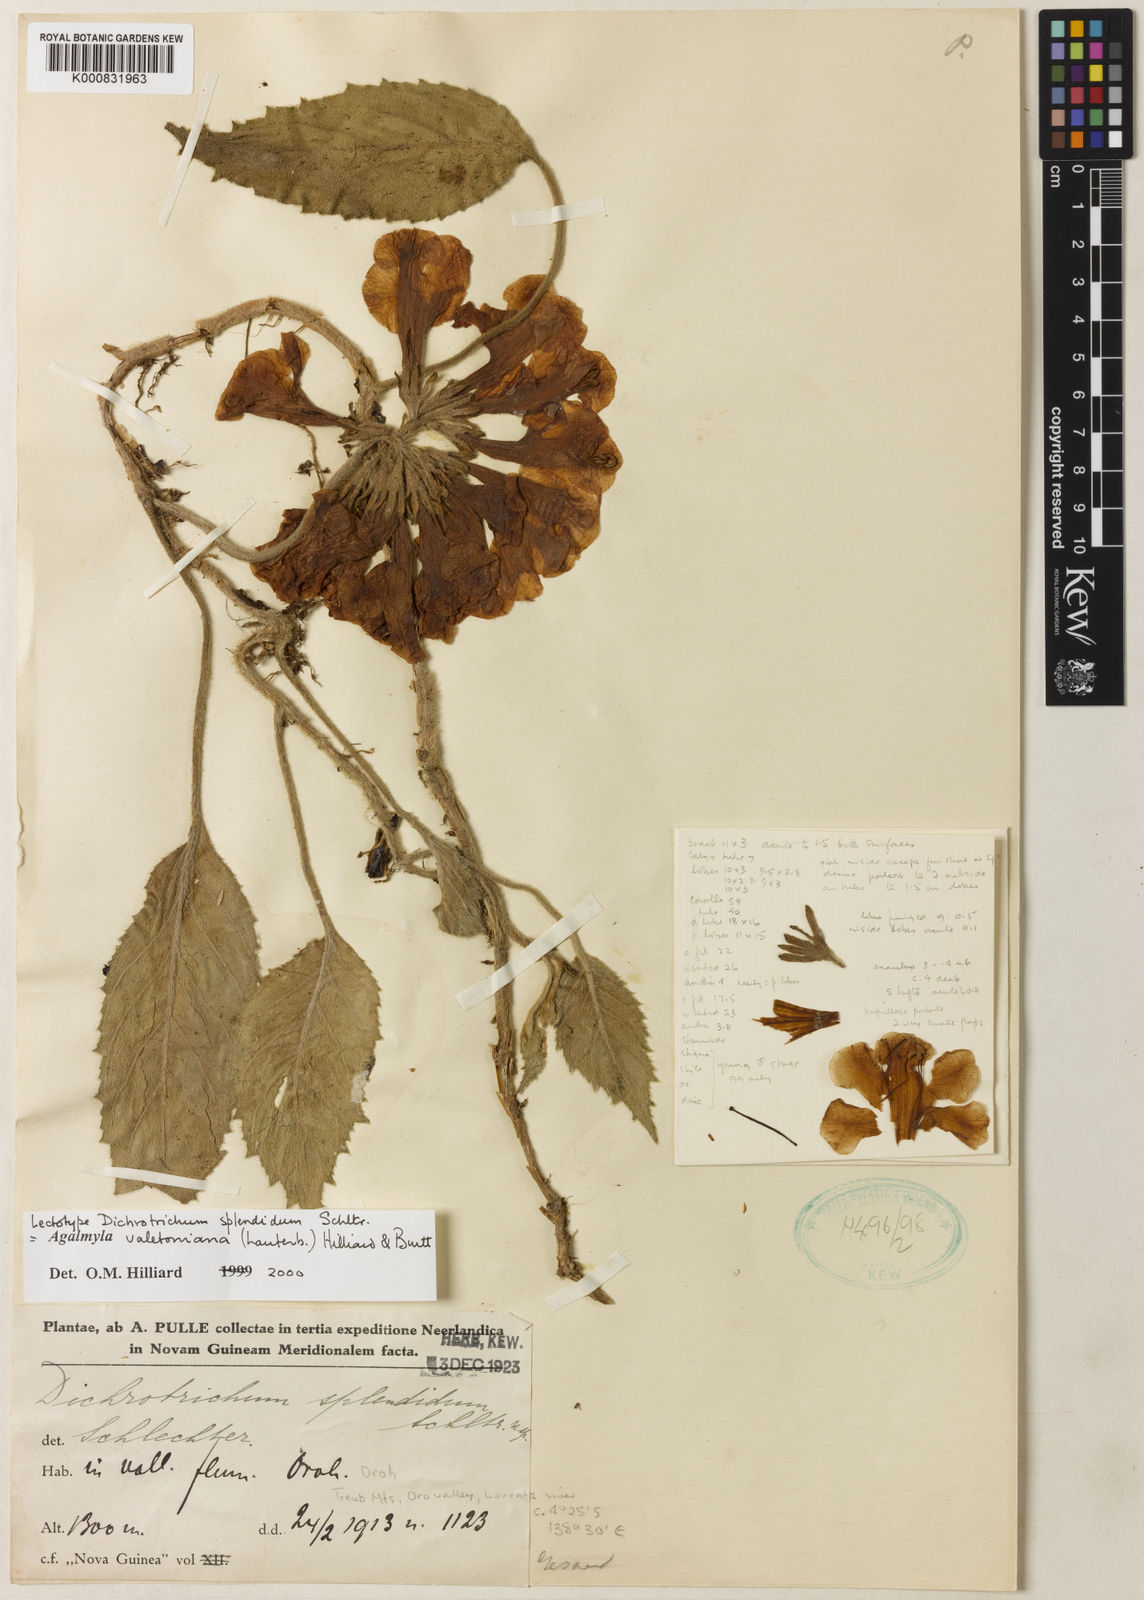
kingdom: Plantae
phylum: Tracheophyta
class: Magnoliopsida
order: Lamiales
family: Gesneriaceae
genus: Agalmyla
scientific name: Agalmyla valetoniana
